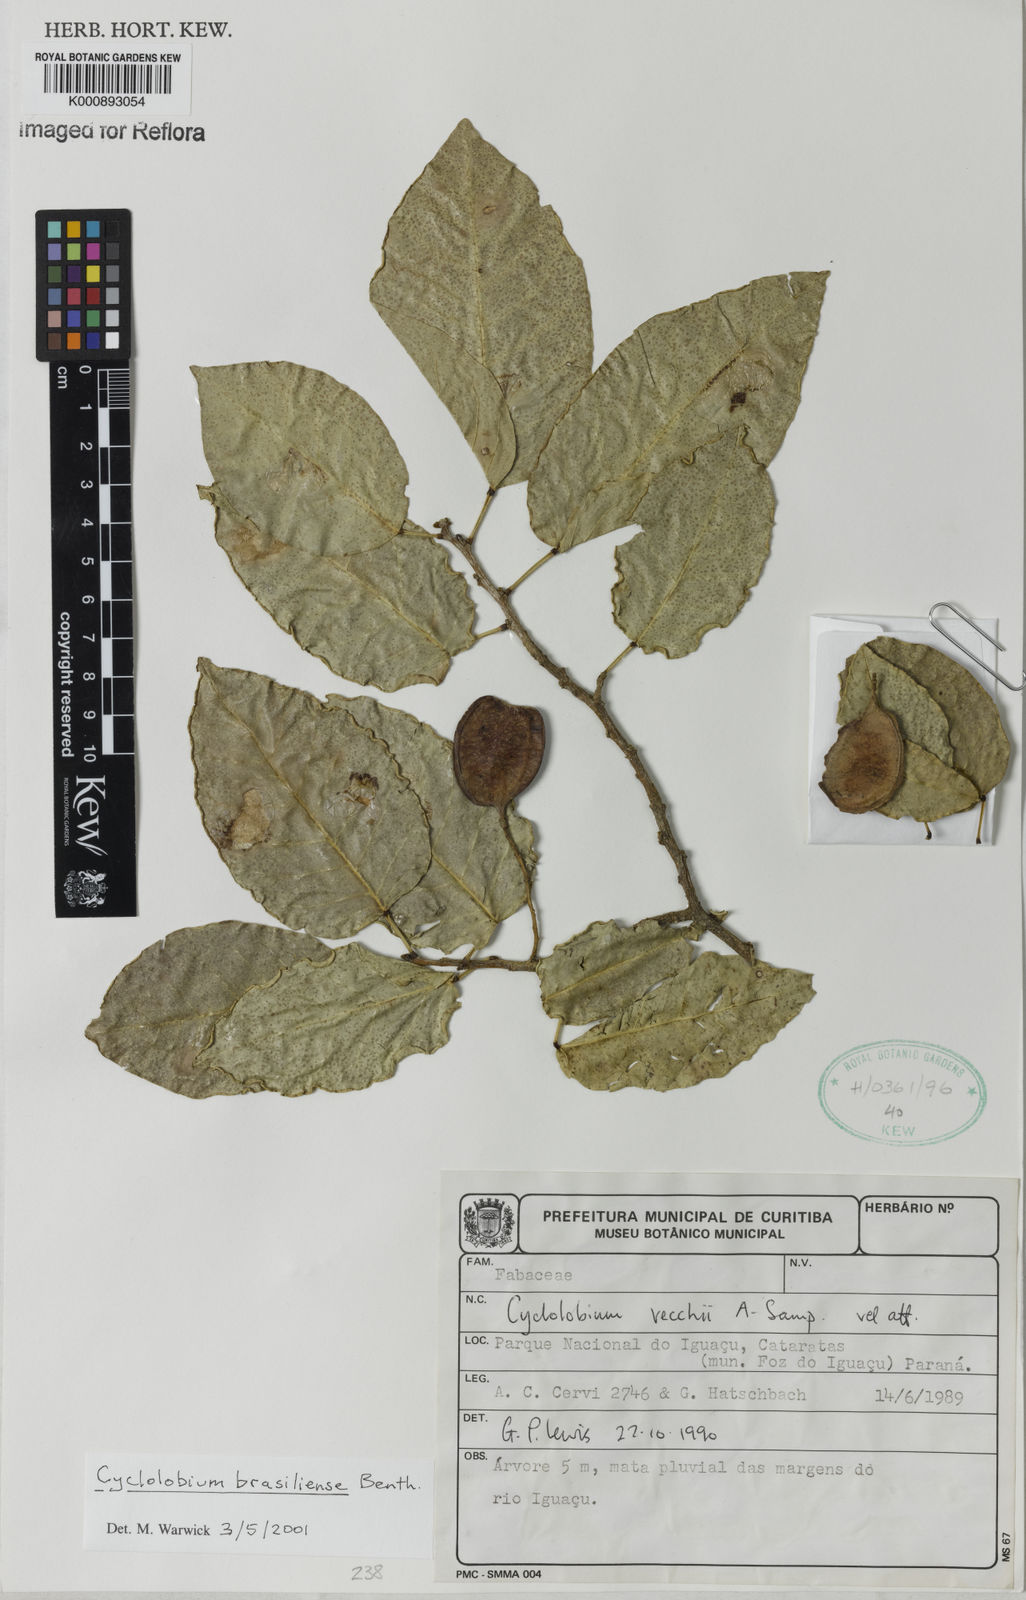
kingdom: Plantae
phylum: Tracheophyta
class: Magnoliopsida
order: Fabales
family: Fabaceae
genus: Cyclolobium
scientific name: Cyclolobium brasiliense
